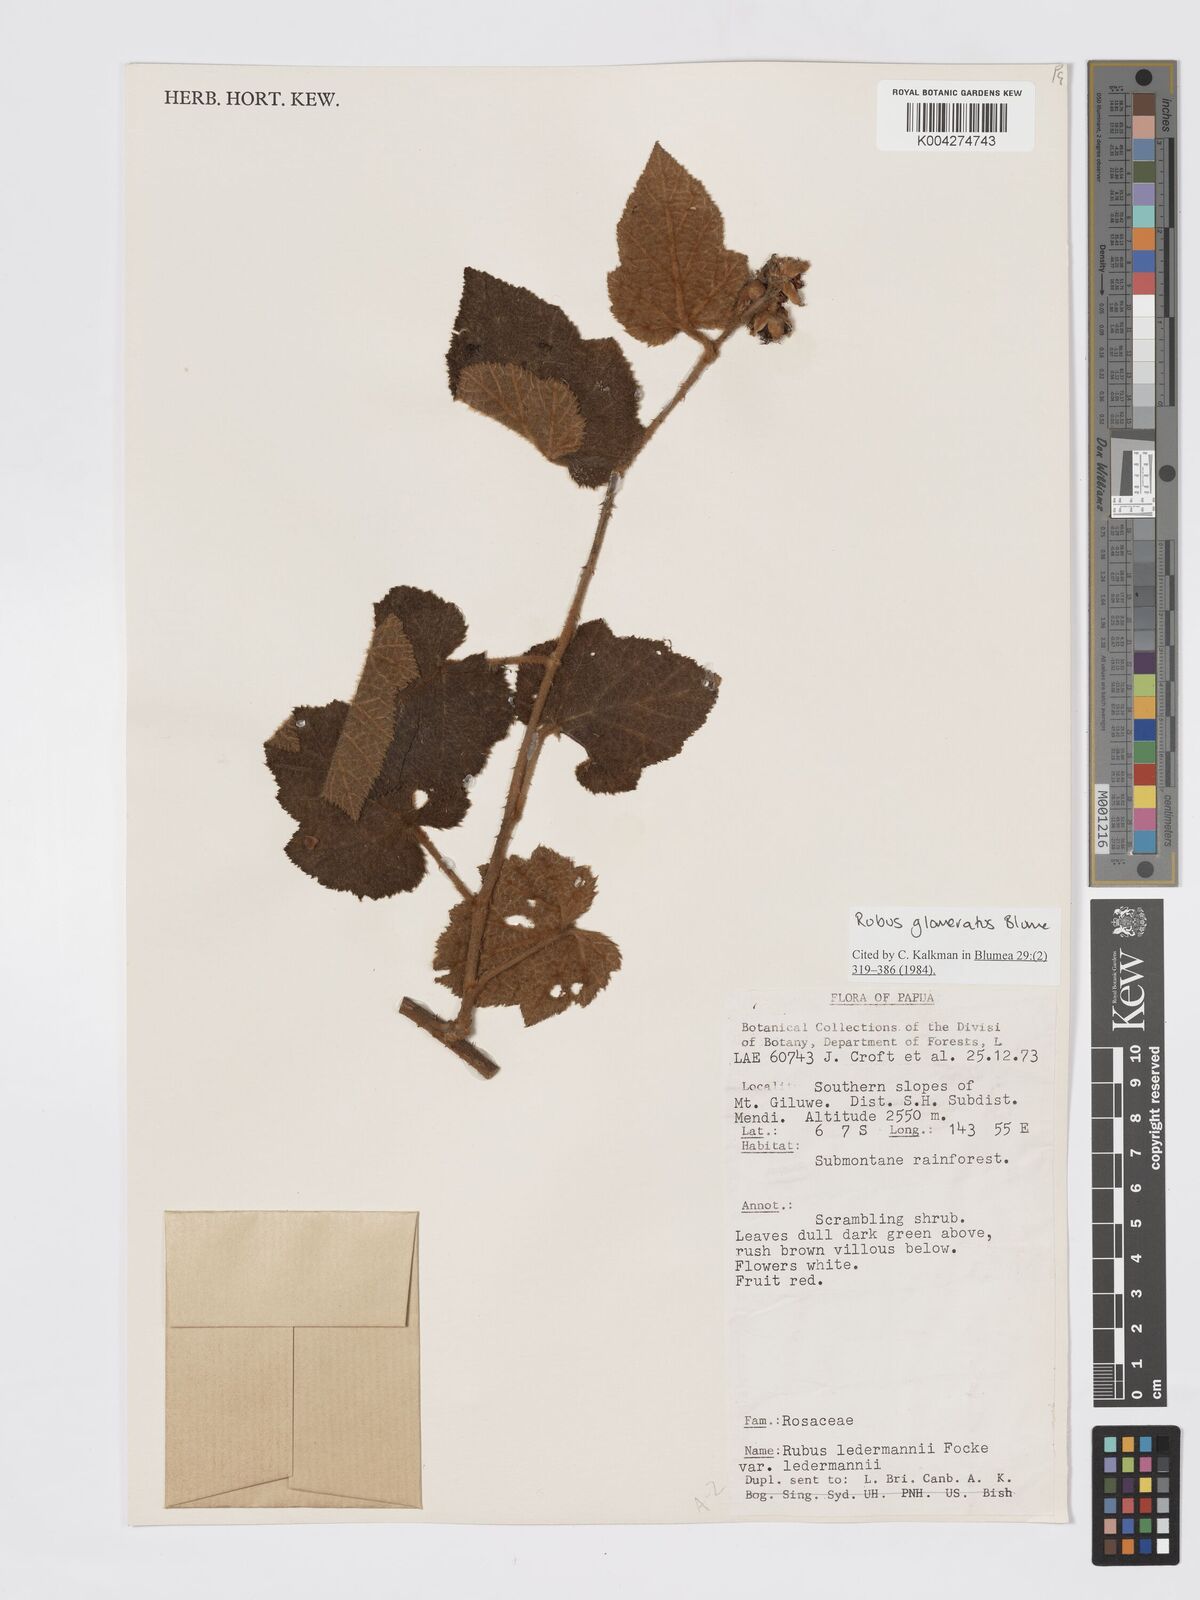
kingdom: Plantae
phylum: Tracheophyta
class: Magnoliopsida
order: Rosales
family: Rosaceae
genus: Rubus
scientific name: Rubus
